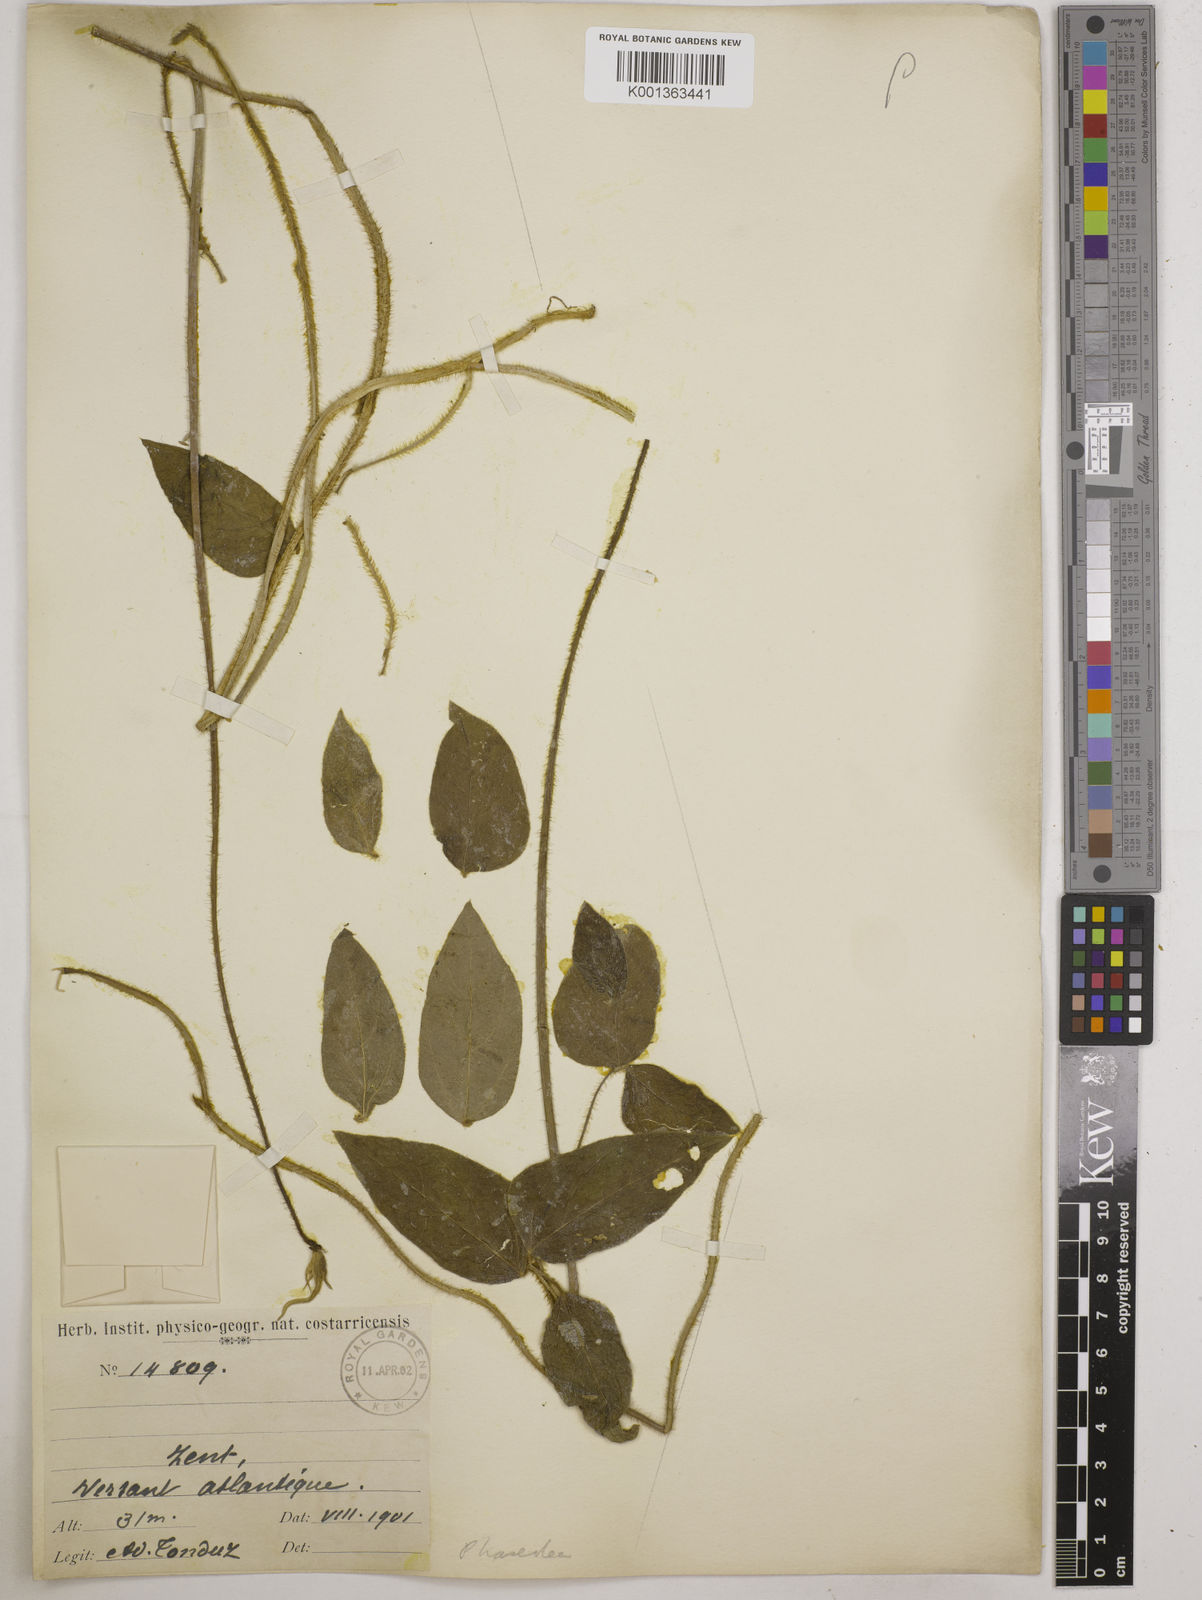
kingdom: Plantae
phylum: Tracheophyta
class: Magnoliopsida
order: Fabales
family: Fabaceae
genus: Vigna
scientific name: Vigna vexillata
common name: Zombi pea
